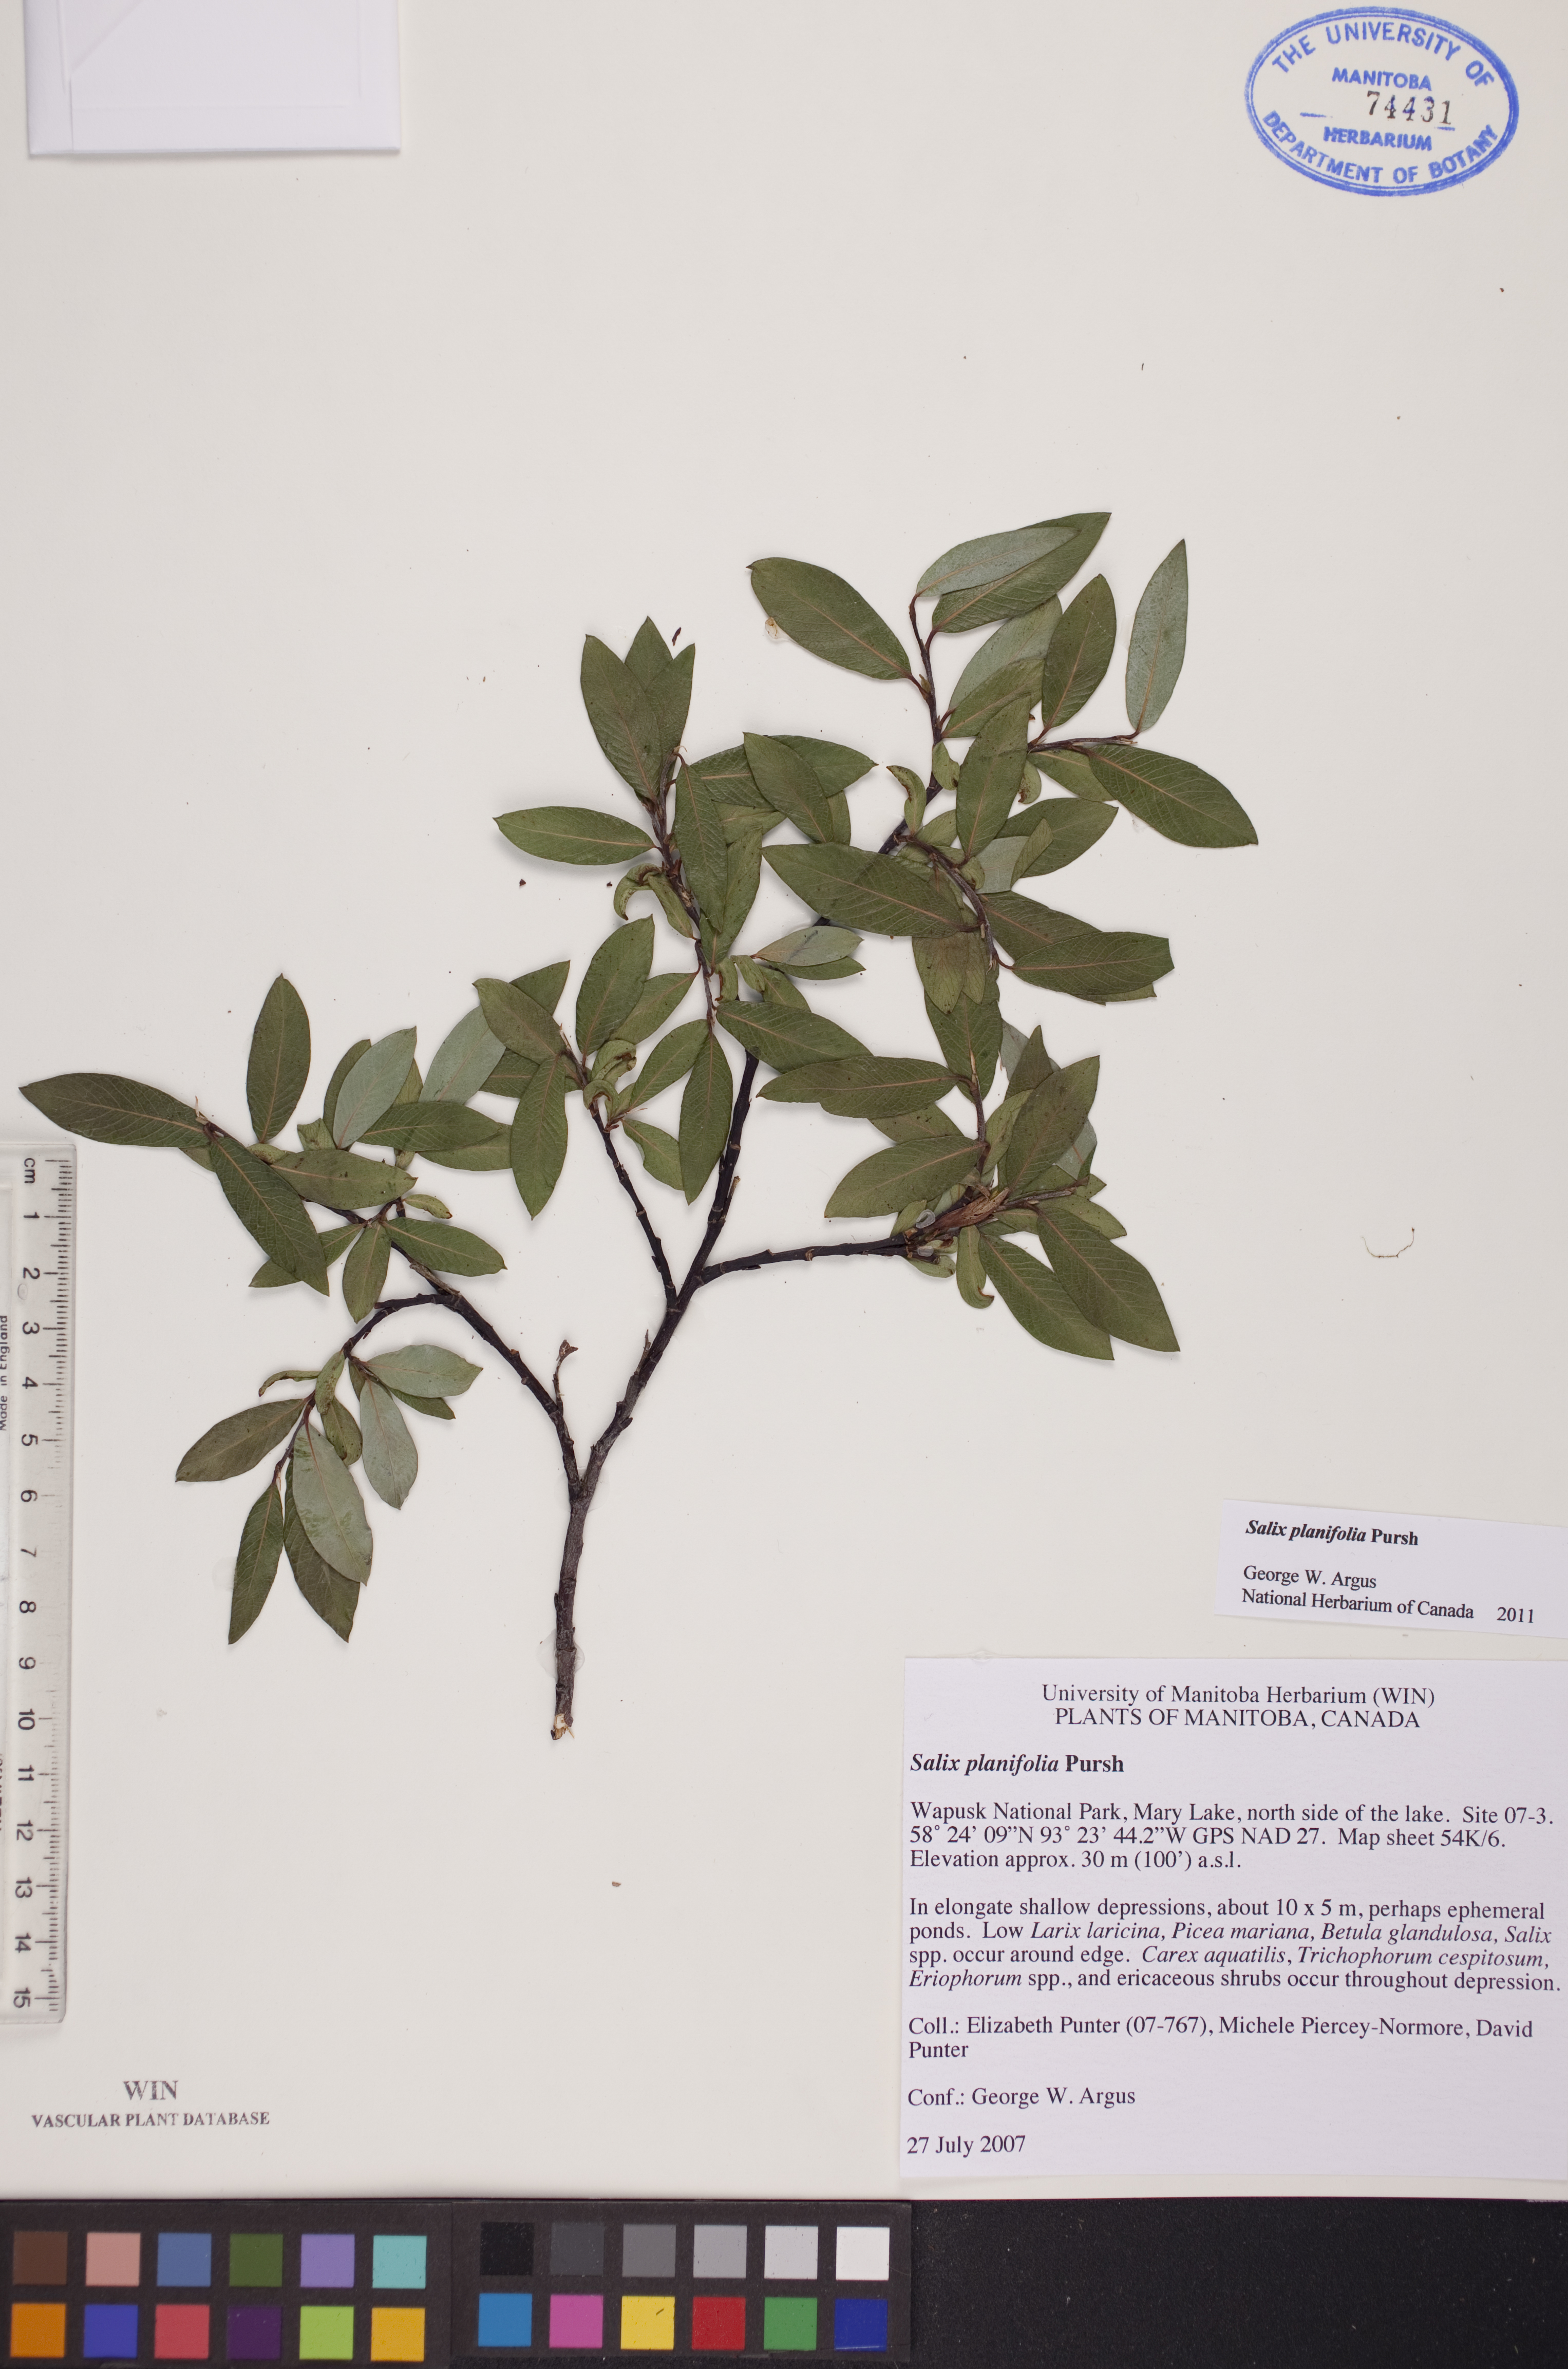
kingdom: Plantae
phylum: Tracheophyta
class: Magnoliopsida
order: Malpighiales
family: Salicaceae
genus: Salix
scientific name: Salix planifolia
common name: Mountain willow
